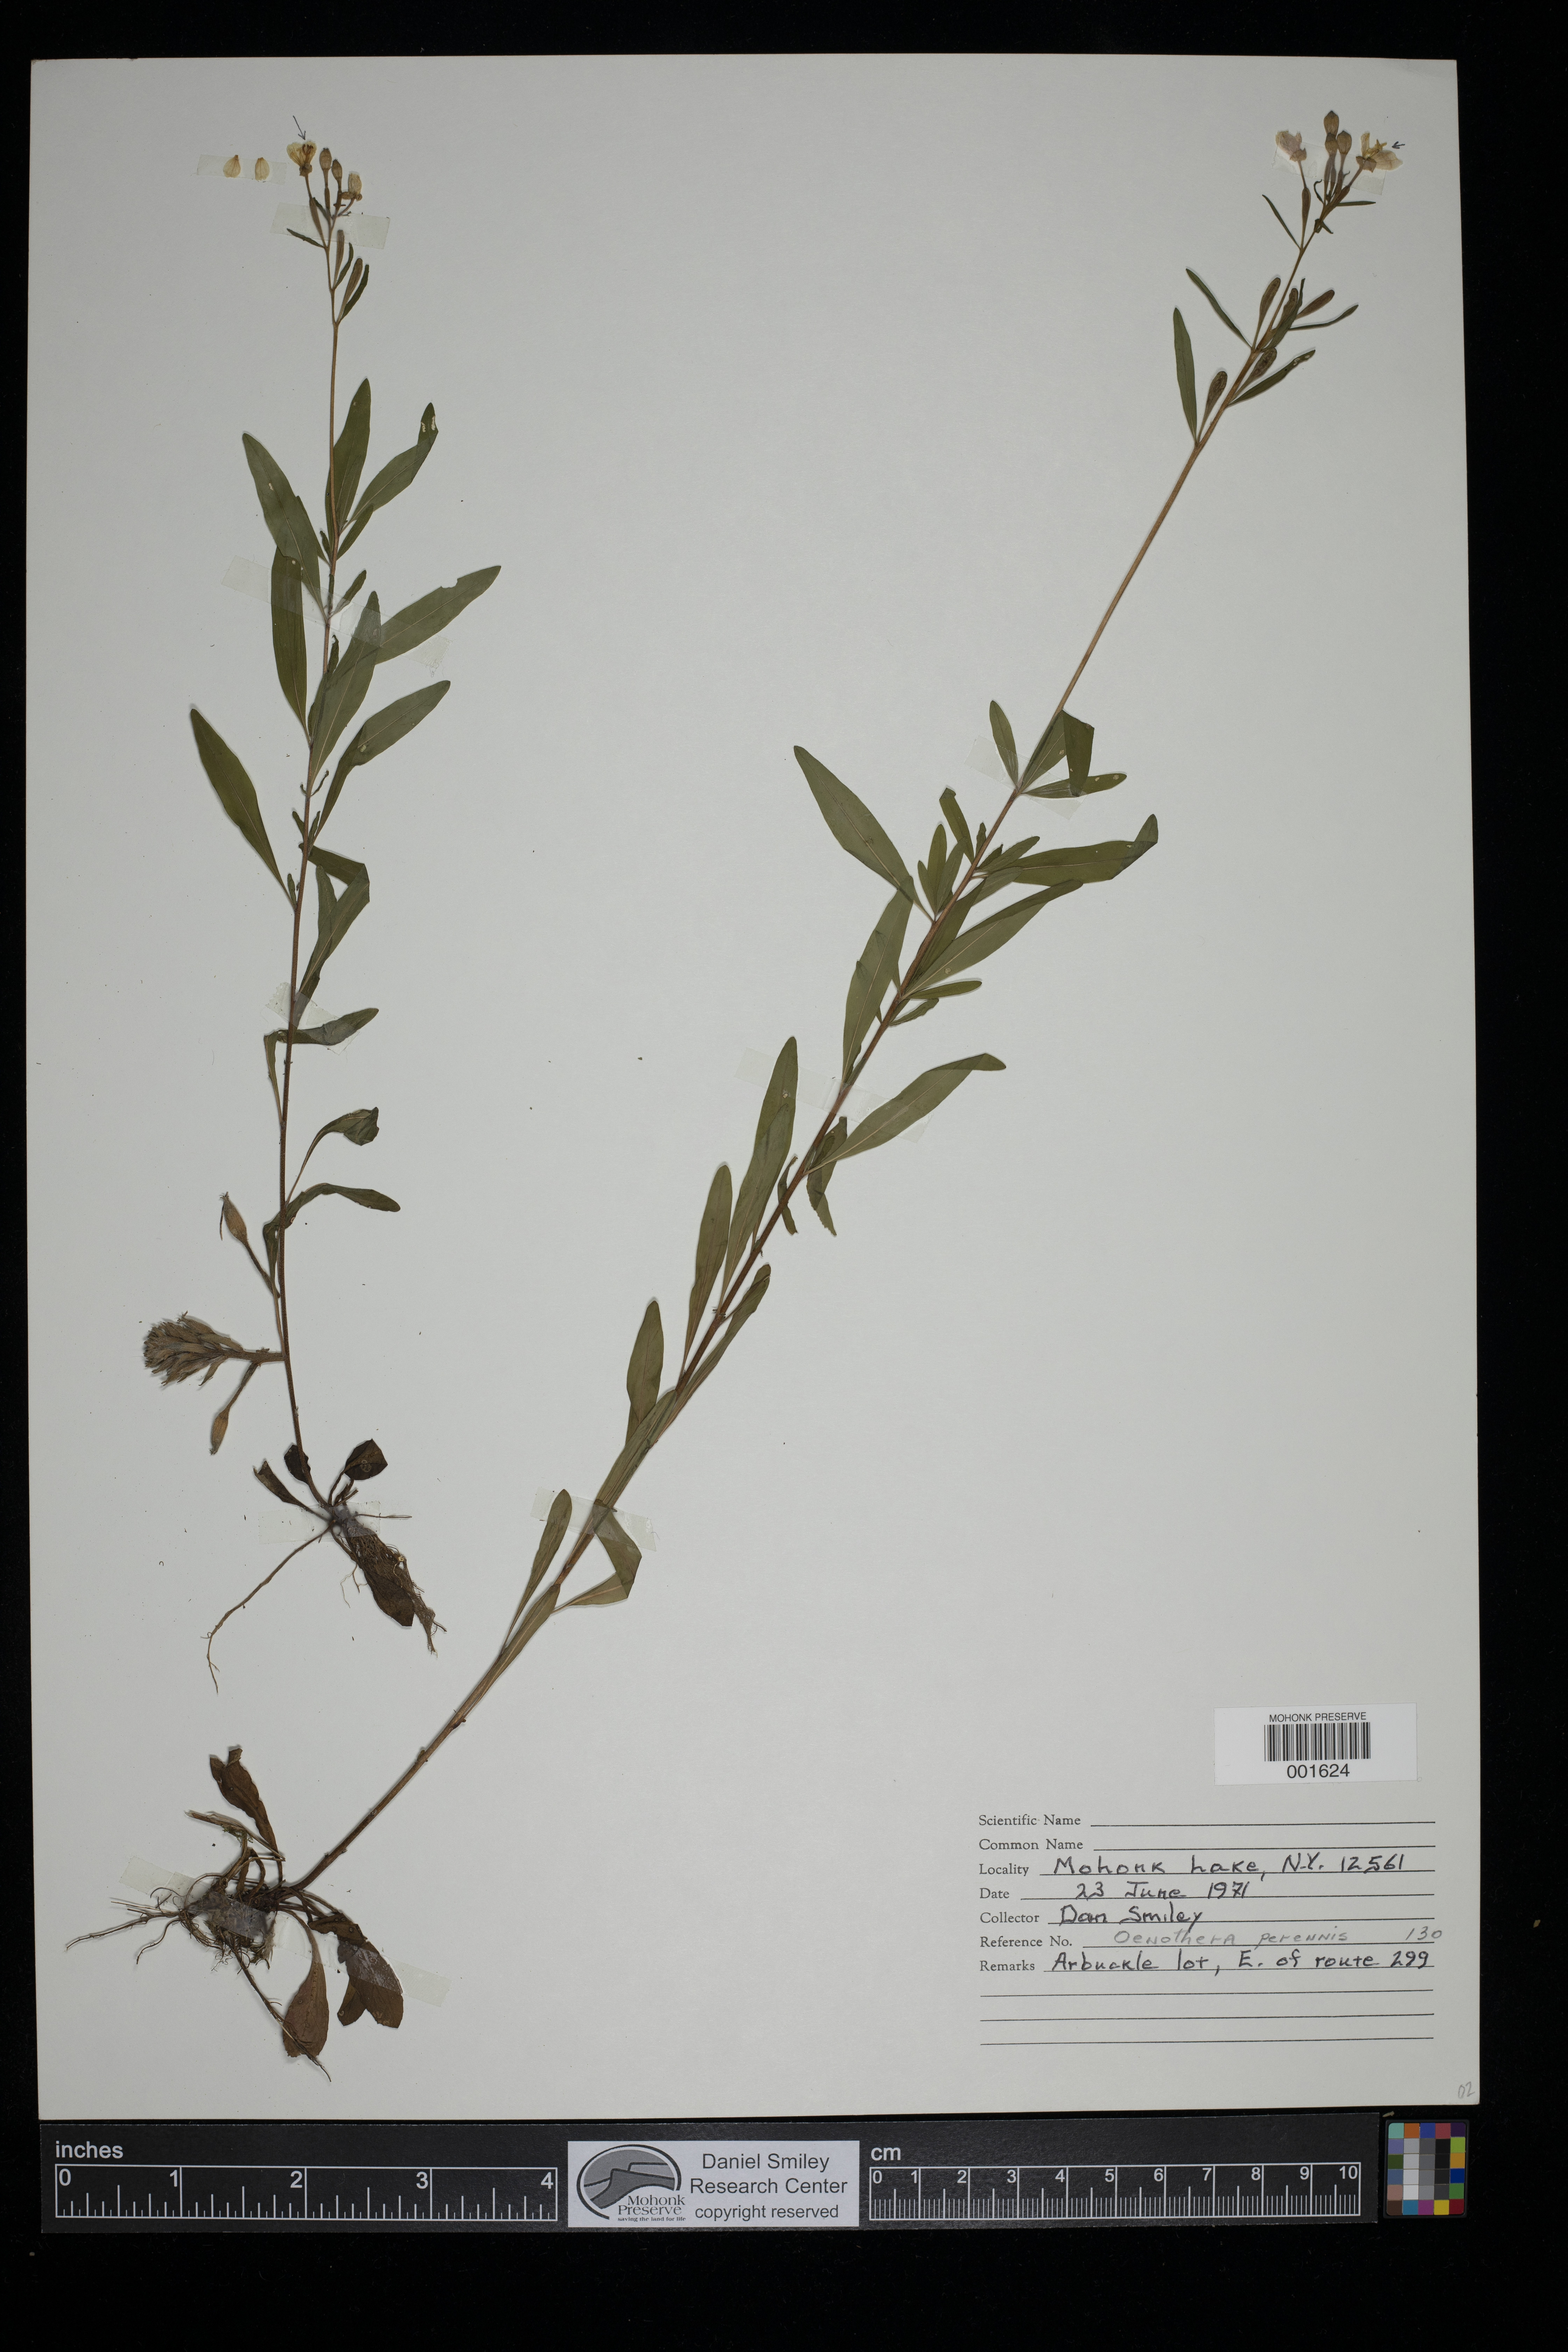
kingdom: Plantae
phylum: Tracheophyta
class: Magnoliopsida
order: Myrtales
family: Onagraceae
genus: Oenothera
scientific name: Oenothera perennis
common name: Small sundrops
